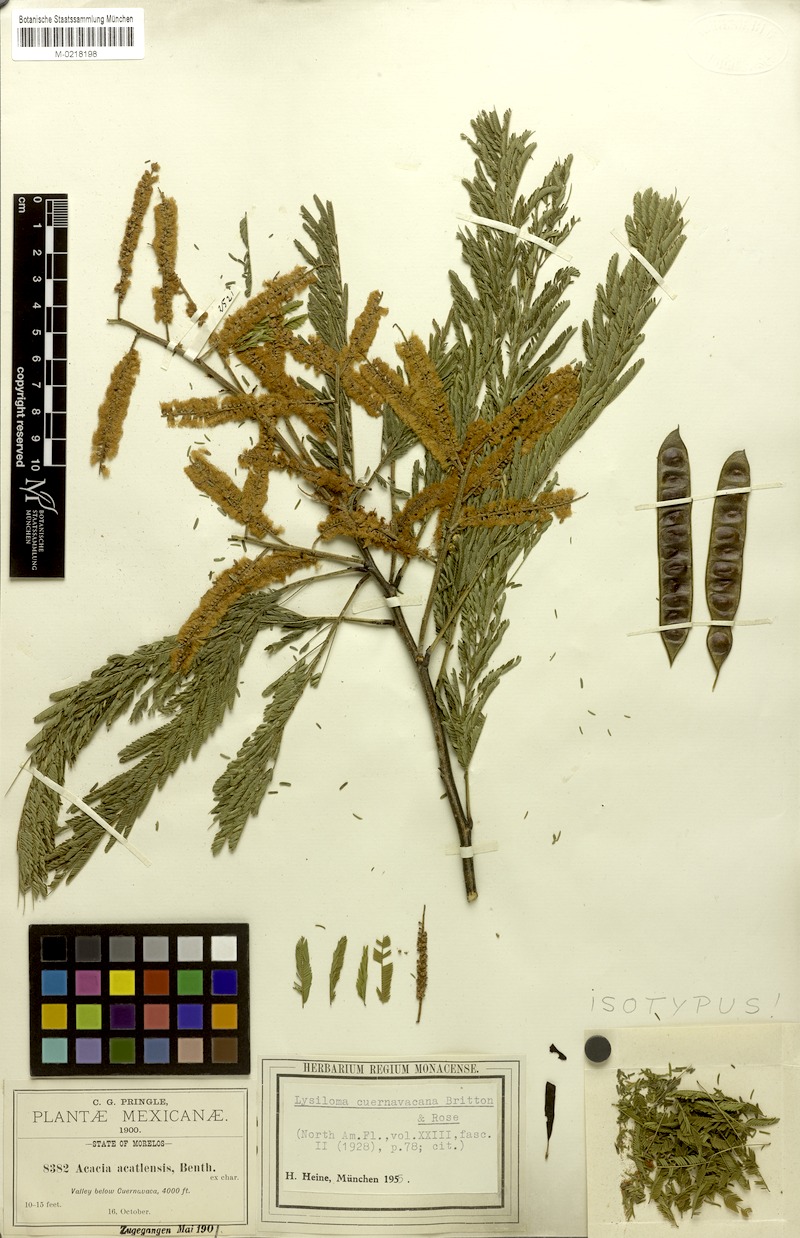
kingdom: Plantae
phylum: Tracheophyta
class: Magnoliopsida
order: Fabales
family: Fabaceae
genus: Lysiloma
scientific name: Lysiloma acapulcense
